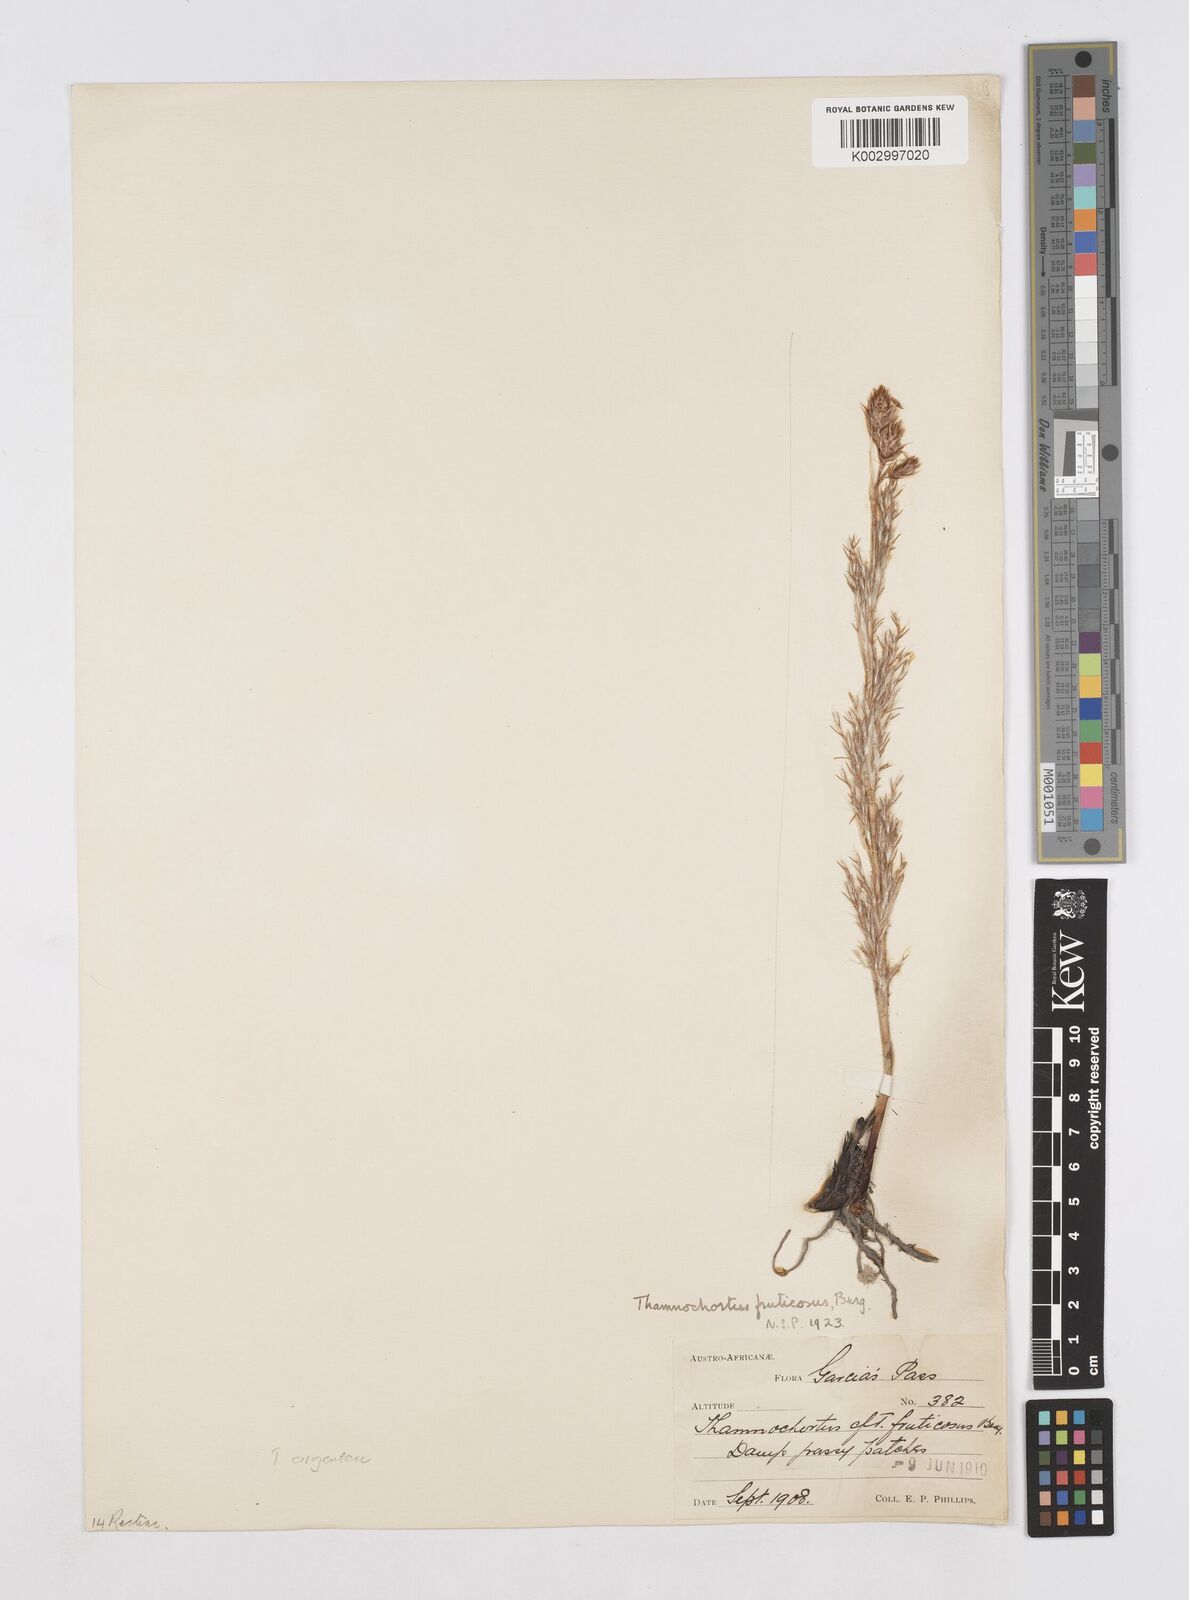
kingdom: Plantae
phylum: Tracheophyta
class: Liliopsida
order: Poales
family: Restionaceae
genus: Thamnochortus
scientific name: Thamnochortus fruticosus
